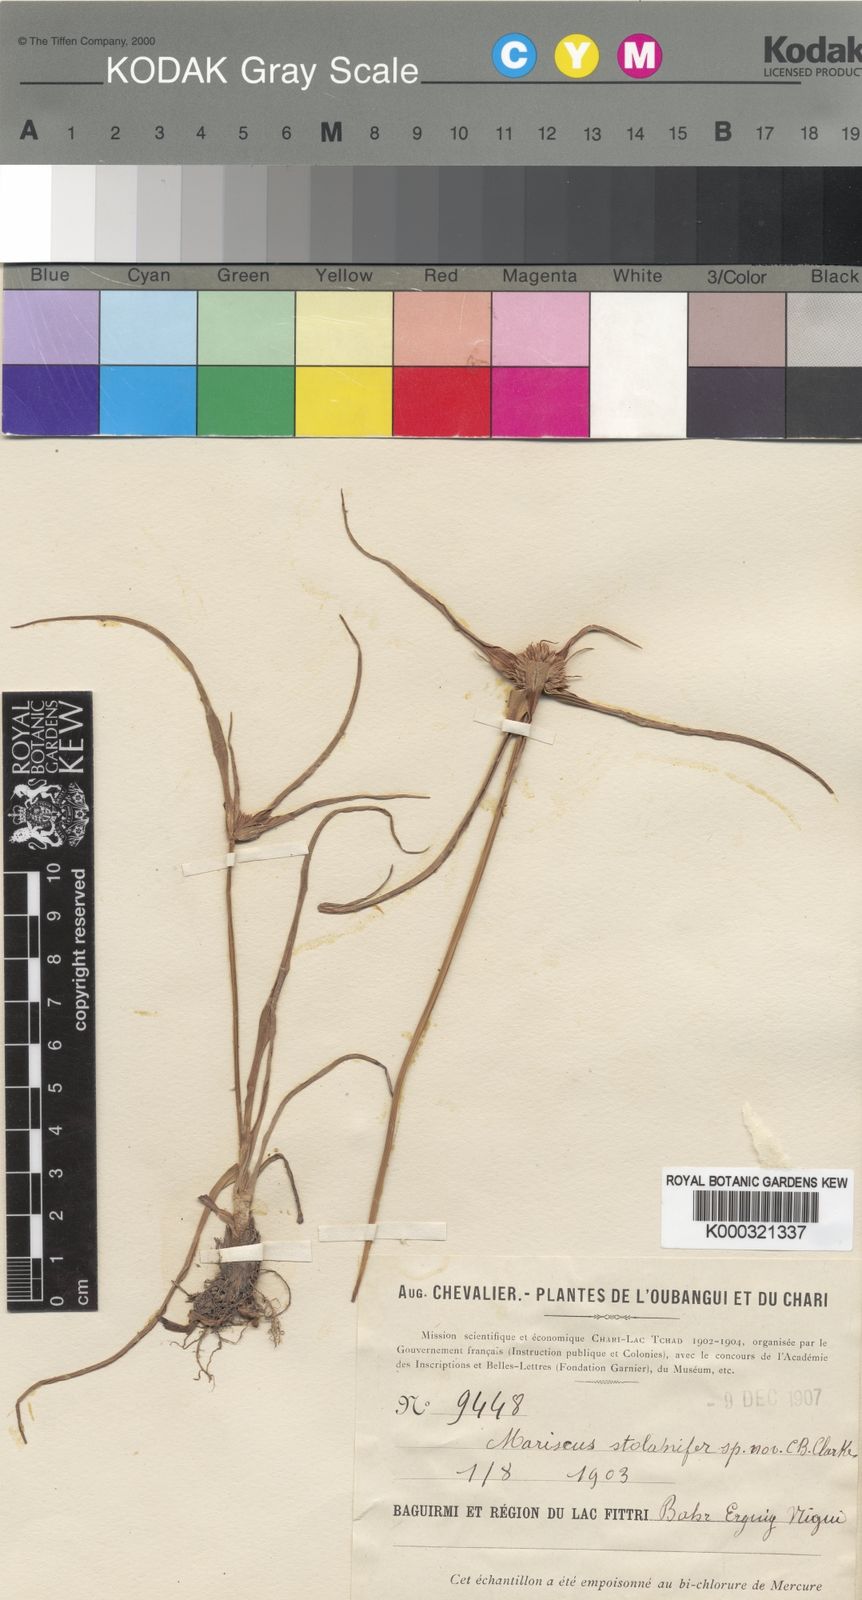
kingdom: Plantae
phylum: Tracheophyta
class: Liliopsida
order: Poales
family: Cyperaceae
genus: Cyperus
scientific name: Cyperus
